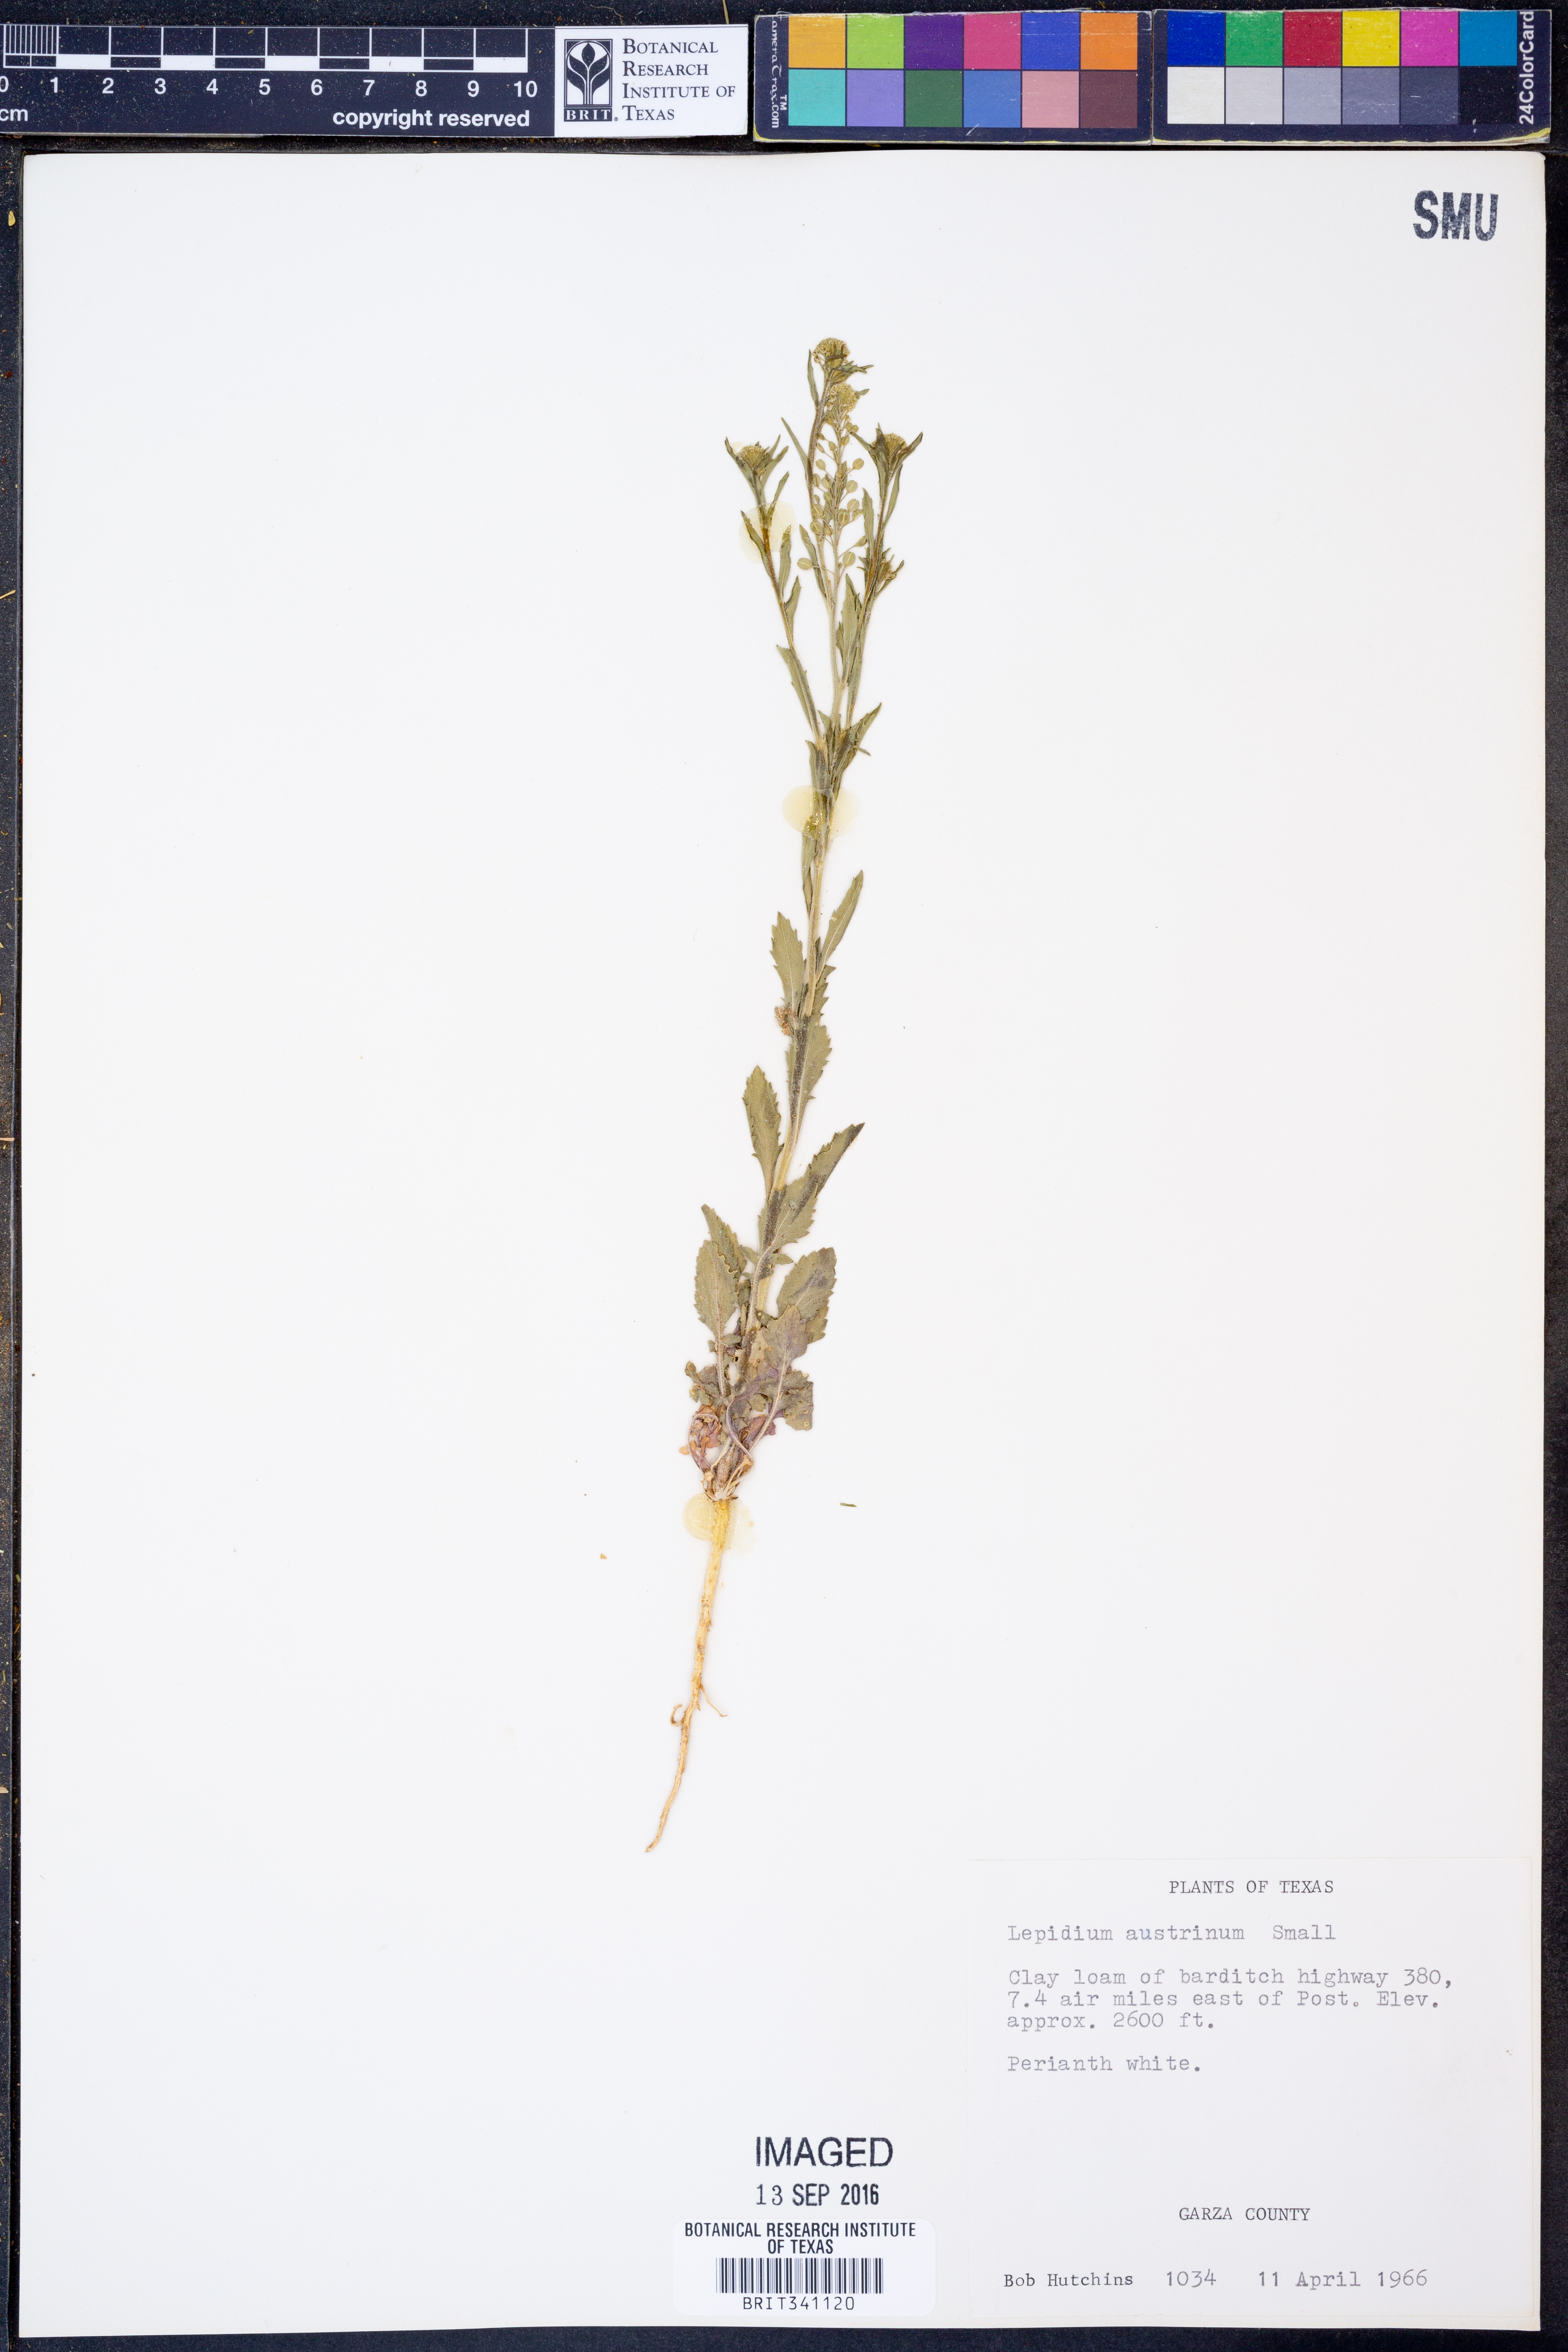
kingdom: Plantae
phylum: Tracheophyta
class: Magnoliopsida
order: Brassicales
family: Brassicaceae
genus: Lepidium
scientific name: Lepidium austrinum
